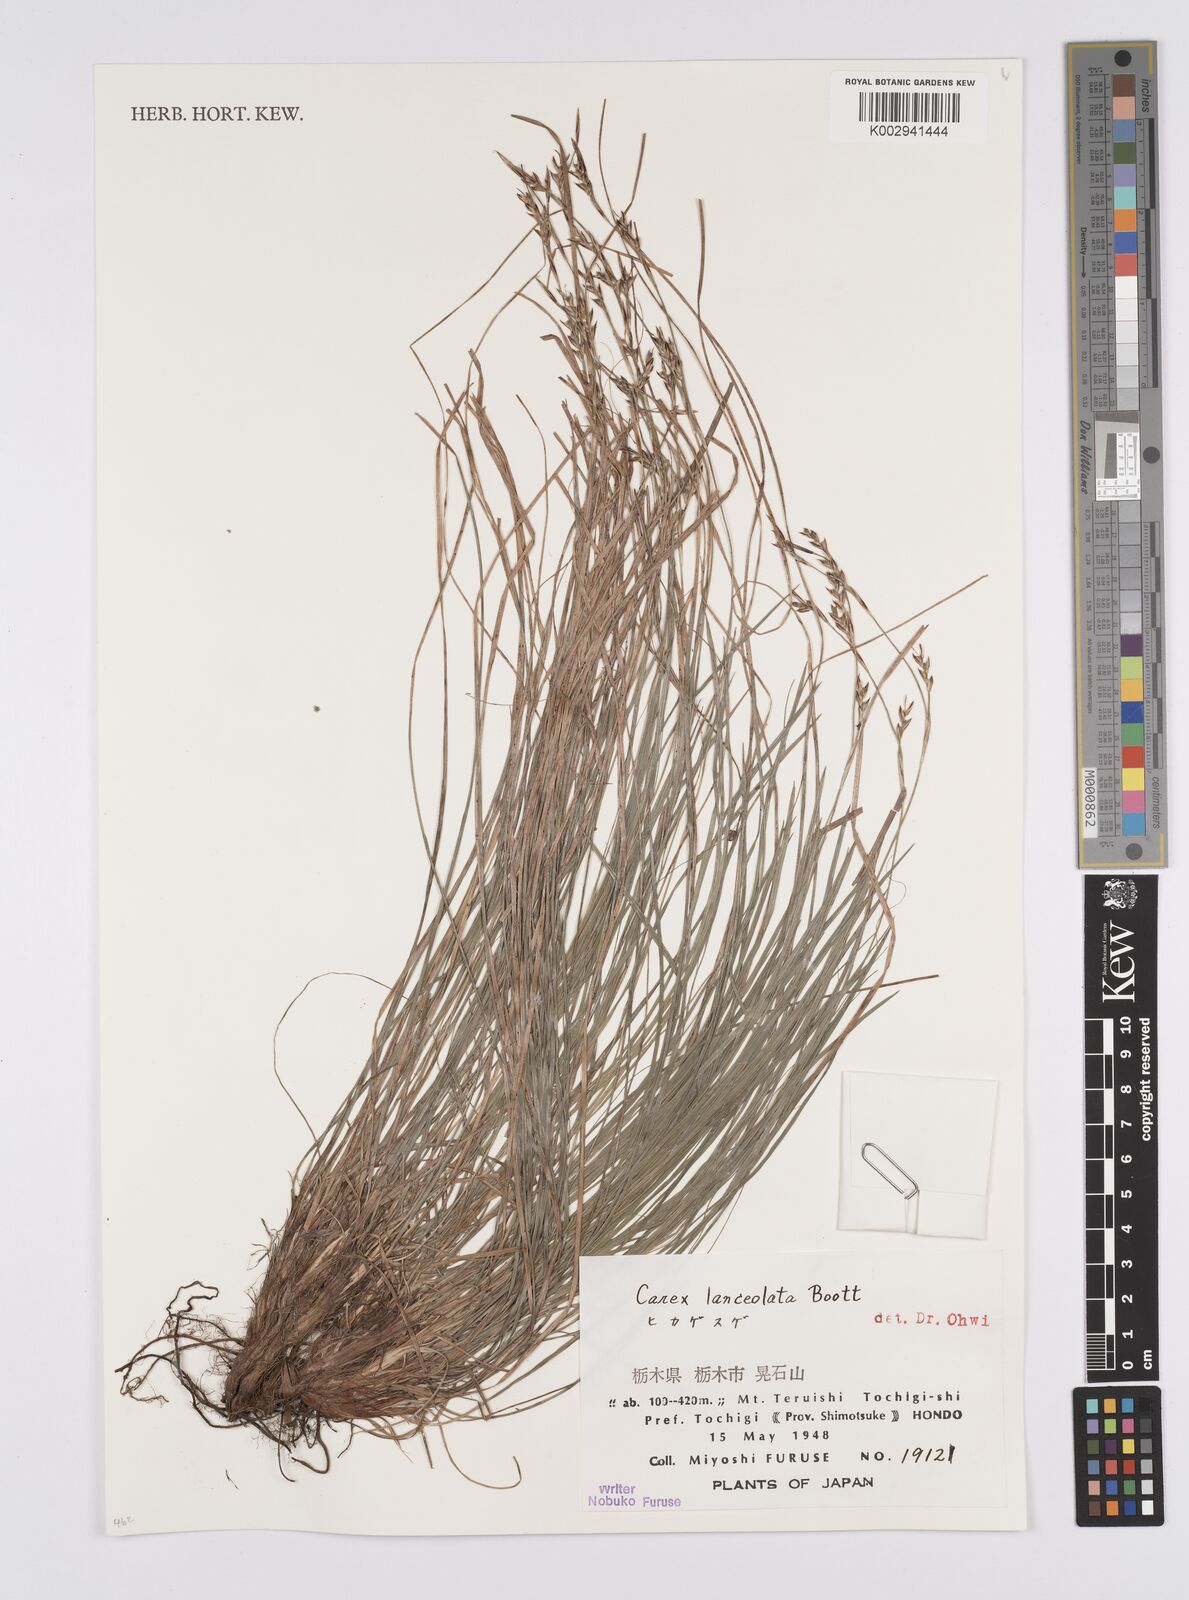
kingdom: Plantae
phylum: Tracheophyta
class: Liliopsida
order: Poales
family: Cyperaceae
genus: Carex
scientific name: Carex lanceolata
